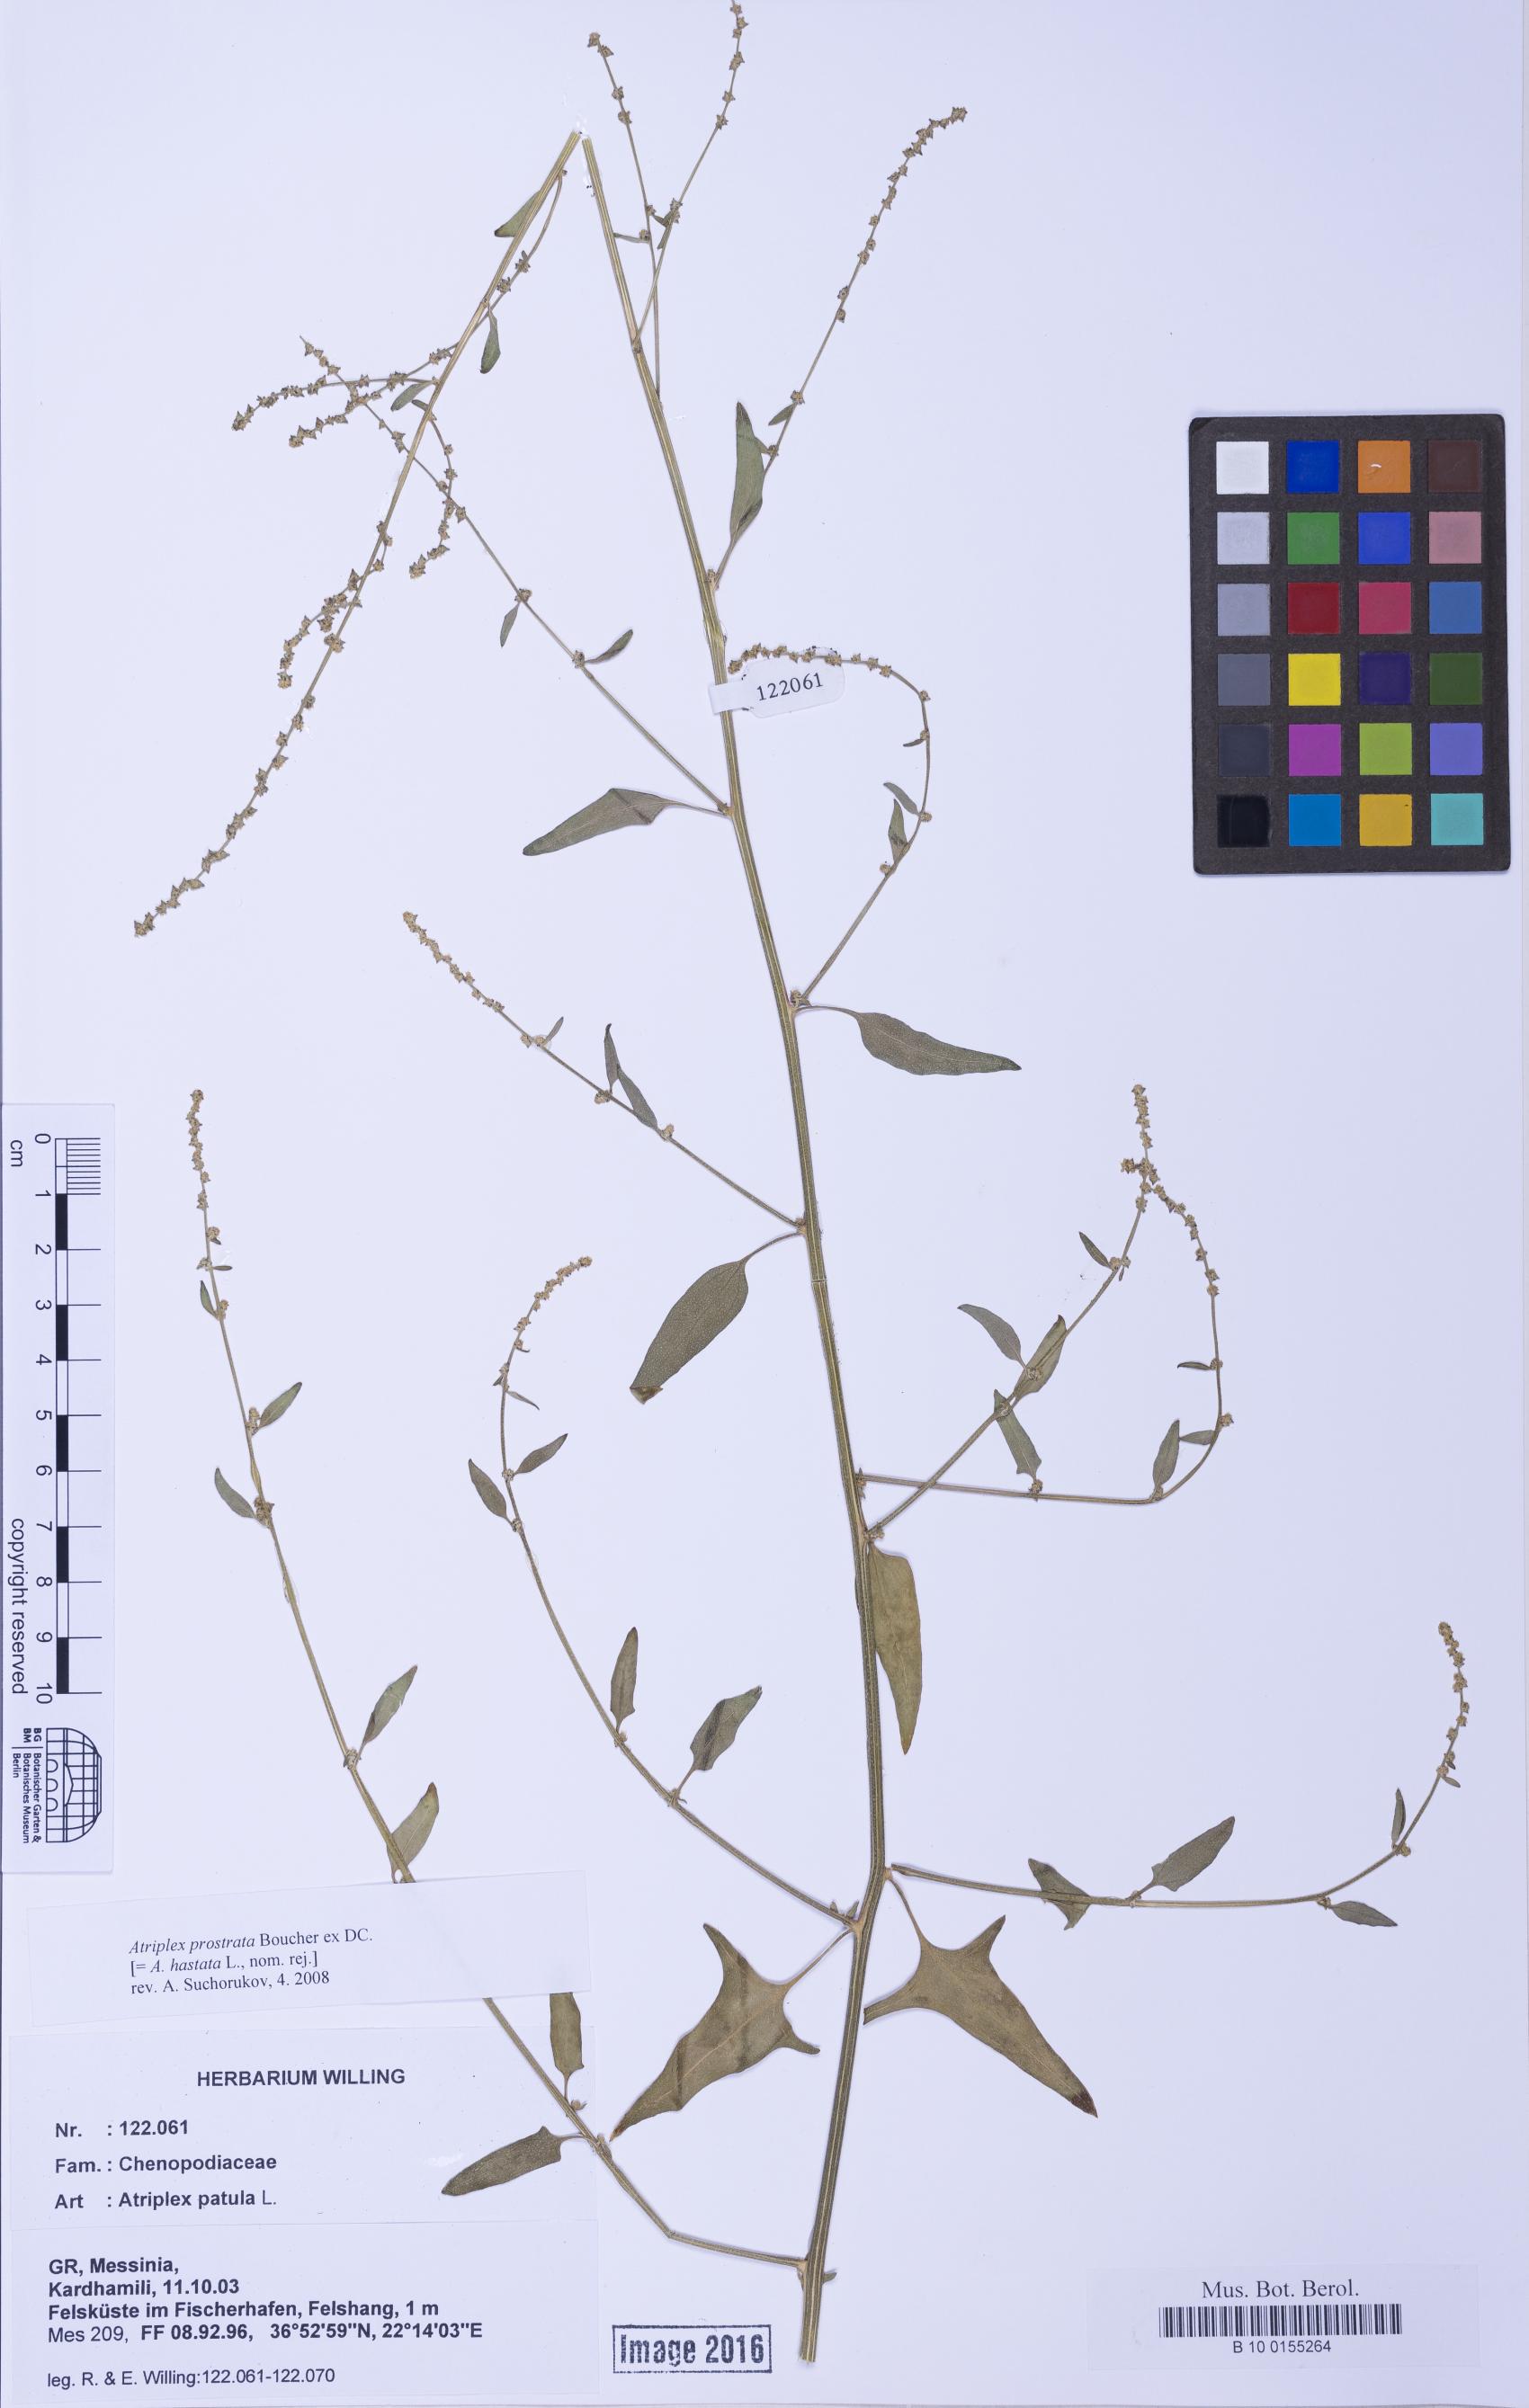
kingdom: Plantae
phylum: Tracheophyta
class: Magnoliopsida
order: Caryophyllales
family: Amaranthaceae
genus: Atriplex
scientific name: Atriplex prostrata
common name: Spear-leaved orache
